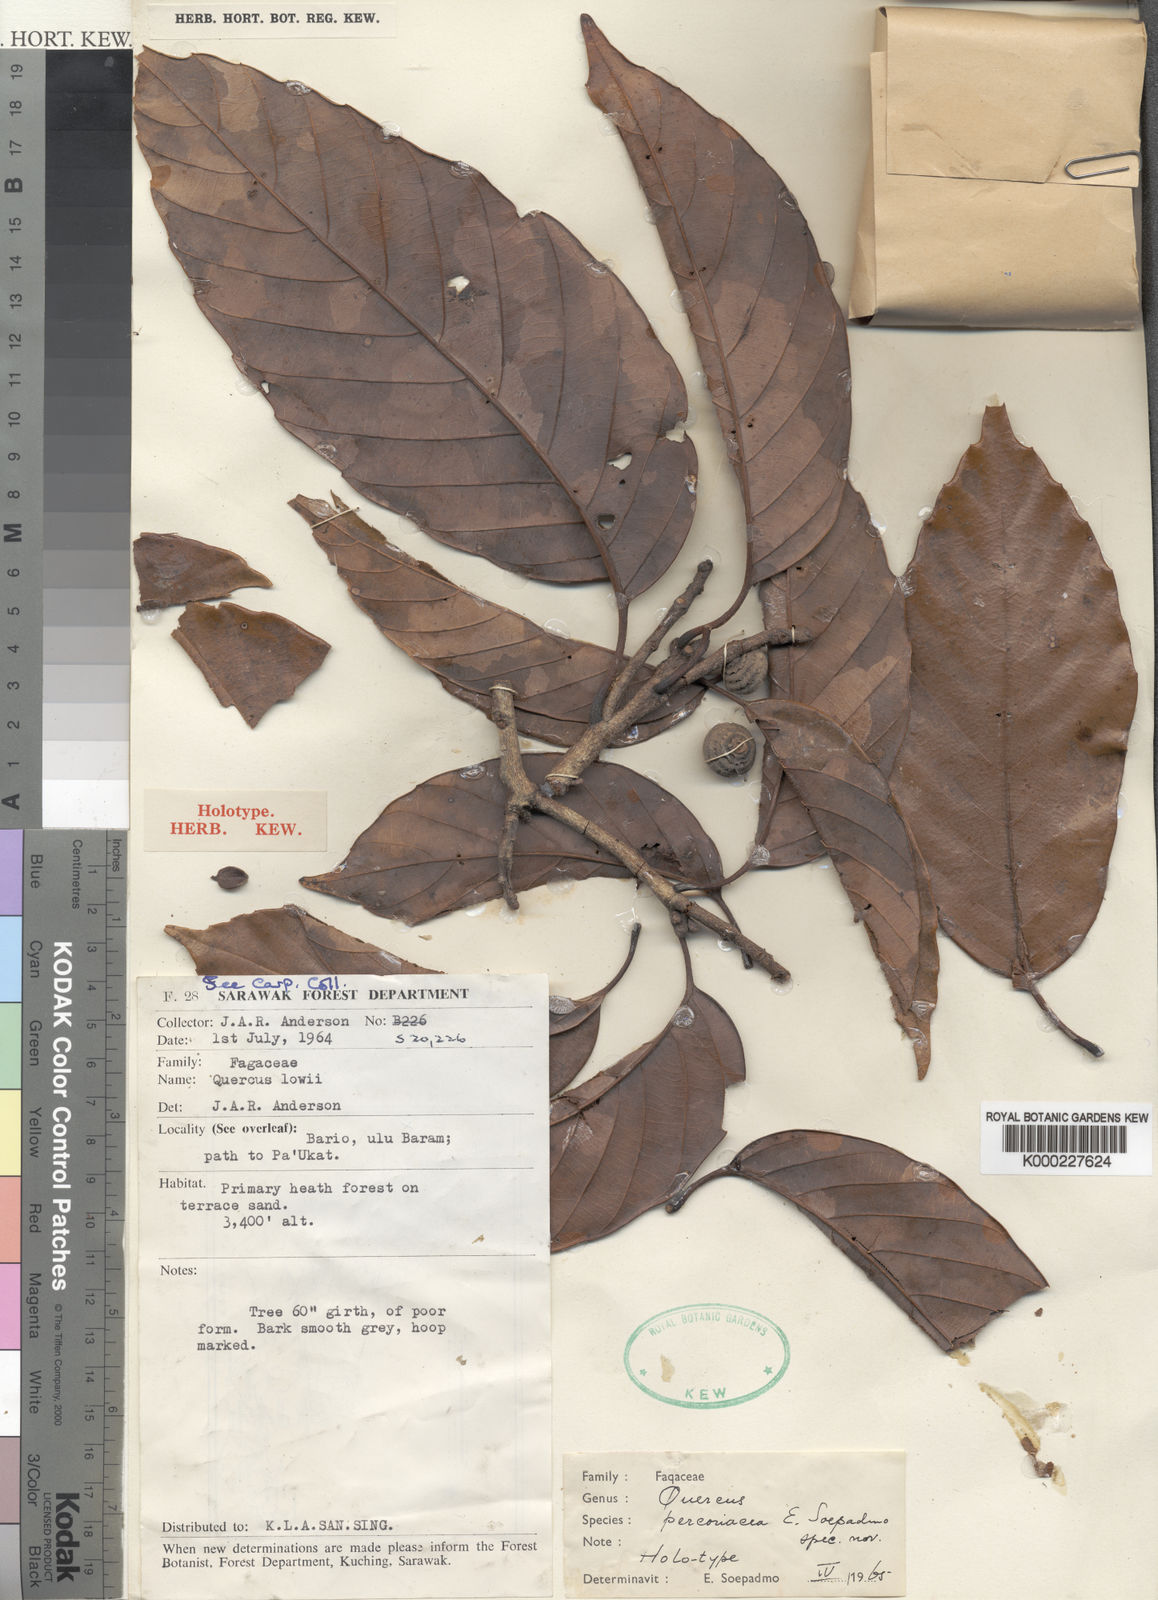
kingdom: Plantae
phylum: Tracheophyta
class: Magnoliopsida
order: Fagales
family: Fagaceae
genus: Quercus
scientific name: Quercus percoriacea
